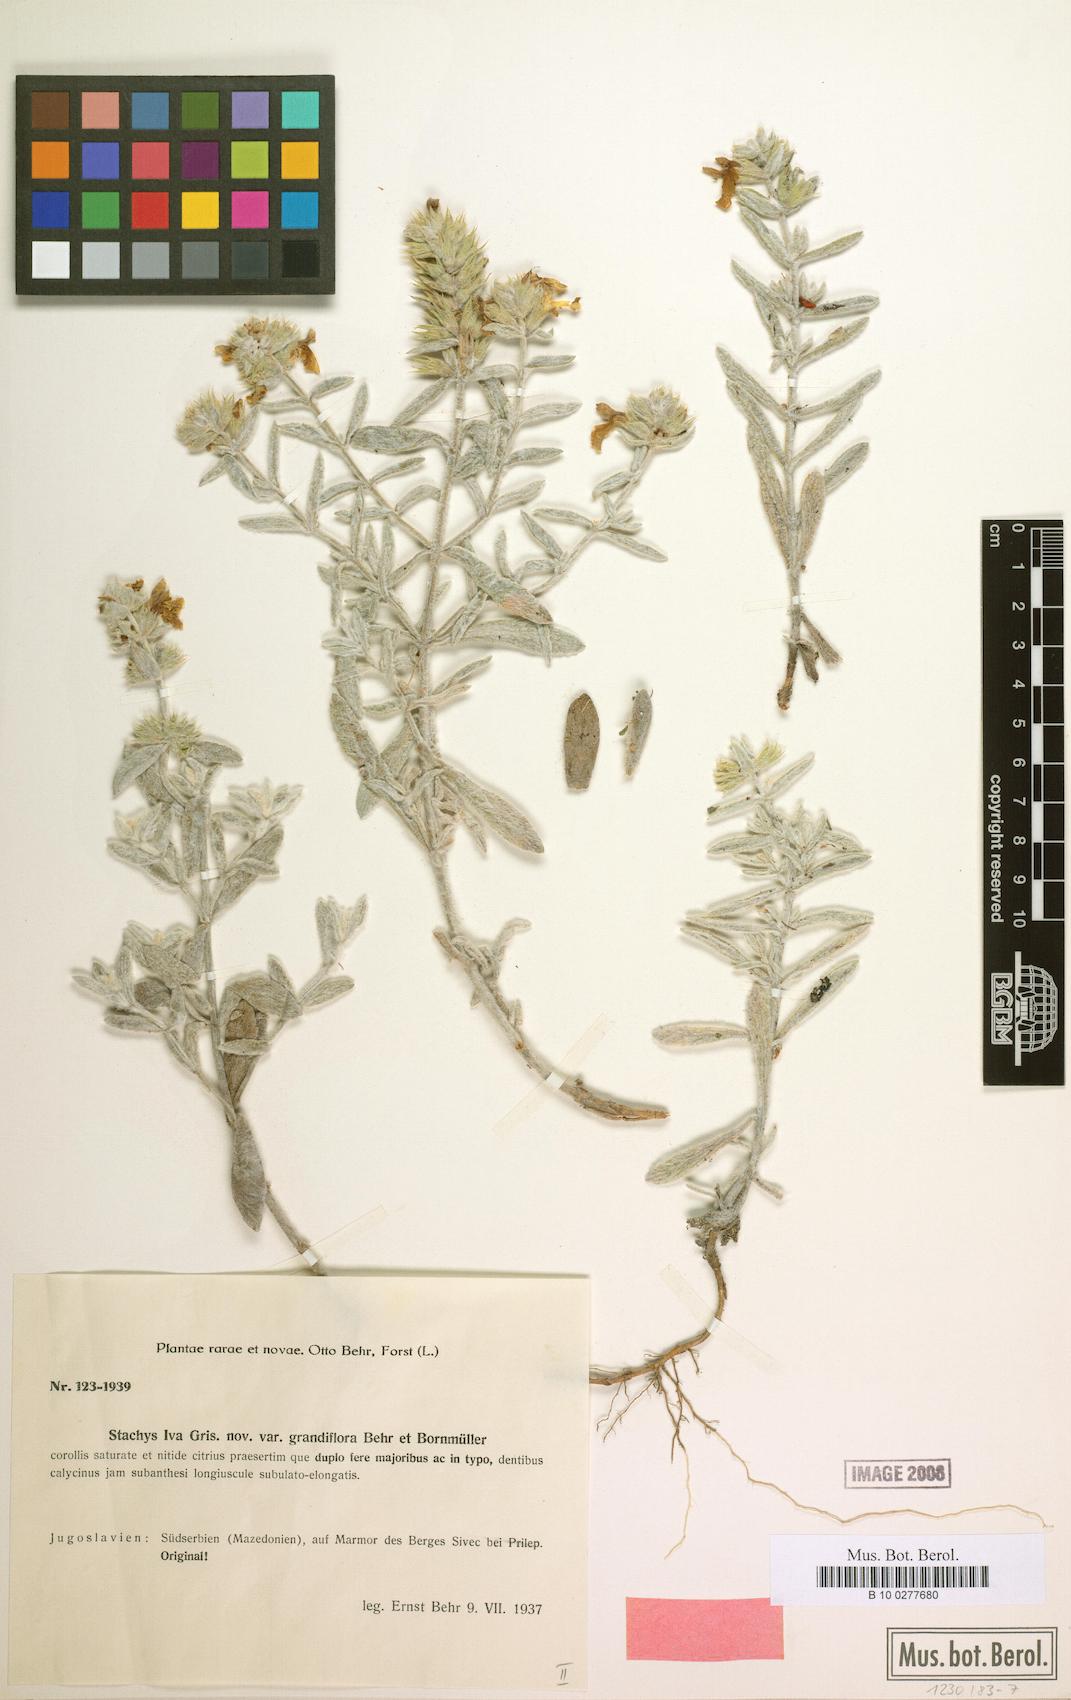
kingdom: Plantae
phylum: Tracheophyta
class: Magnoliopsida
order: Lamiales
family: Lamiaceae
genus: Stachys
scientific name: Stachys iva
